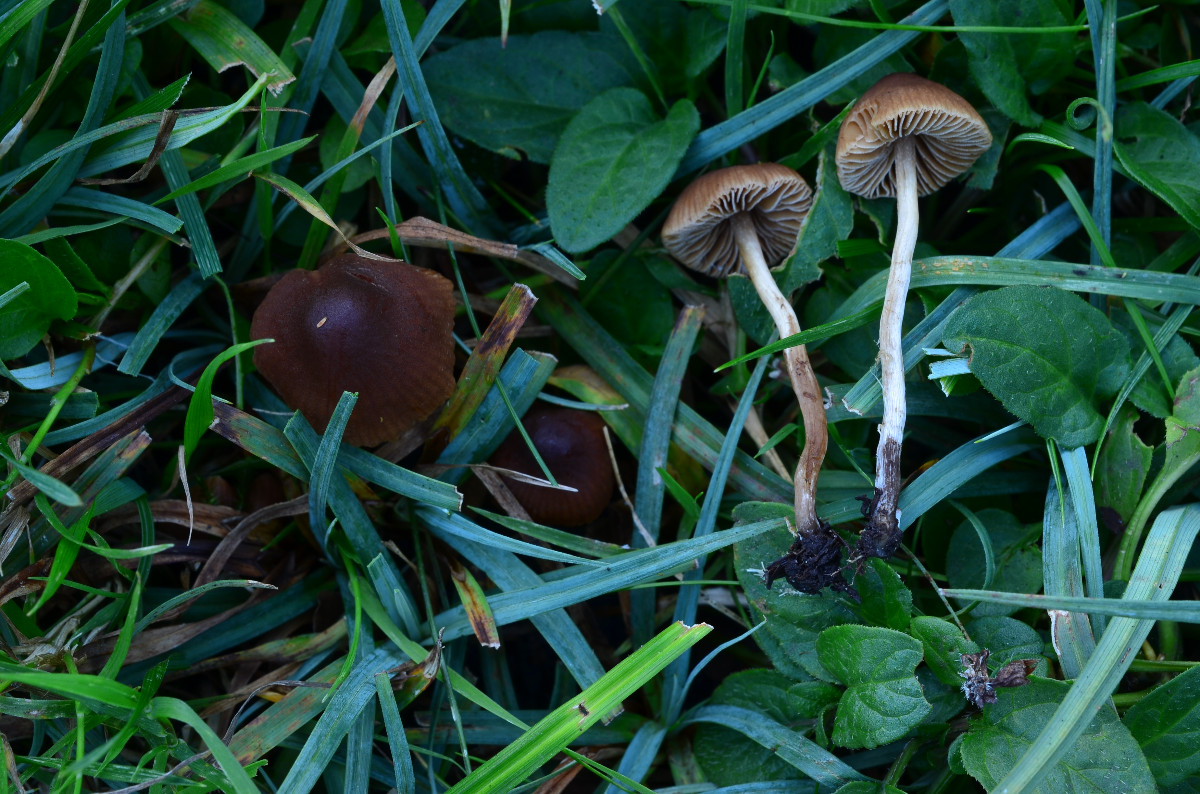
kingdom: Fungi
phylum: Basidiomycota
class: Agaricomycetes
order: Agaricales
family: Hymenogastraceae
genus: Naucoria
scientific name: Naucoria bohemica
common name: birke-knaphat
